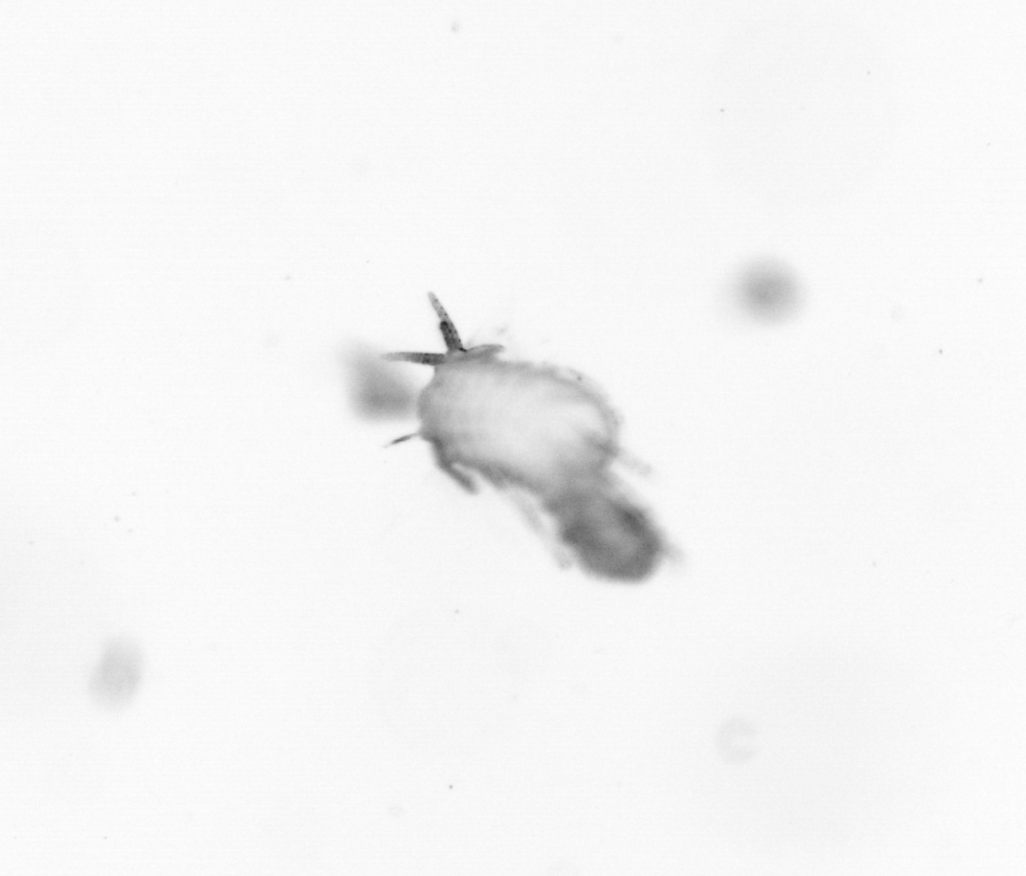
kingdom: Animalia
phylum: Annelida
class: Polychaeta
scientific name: Polychaeta
